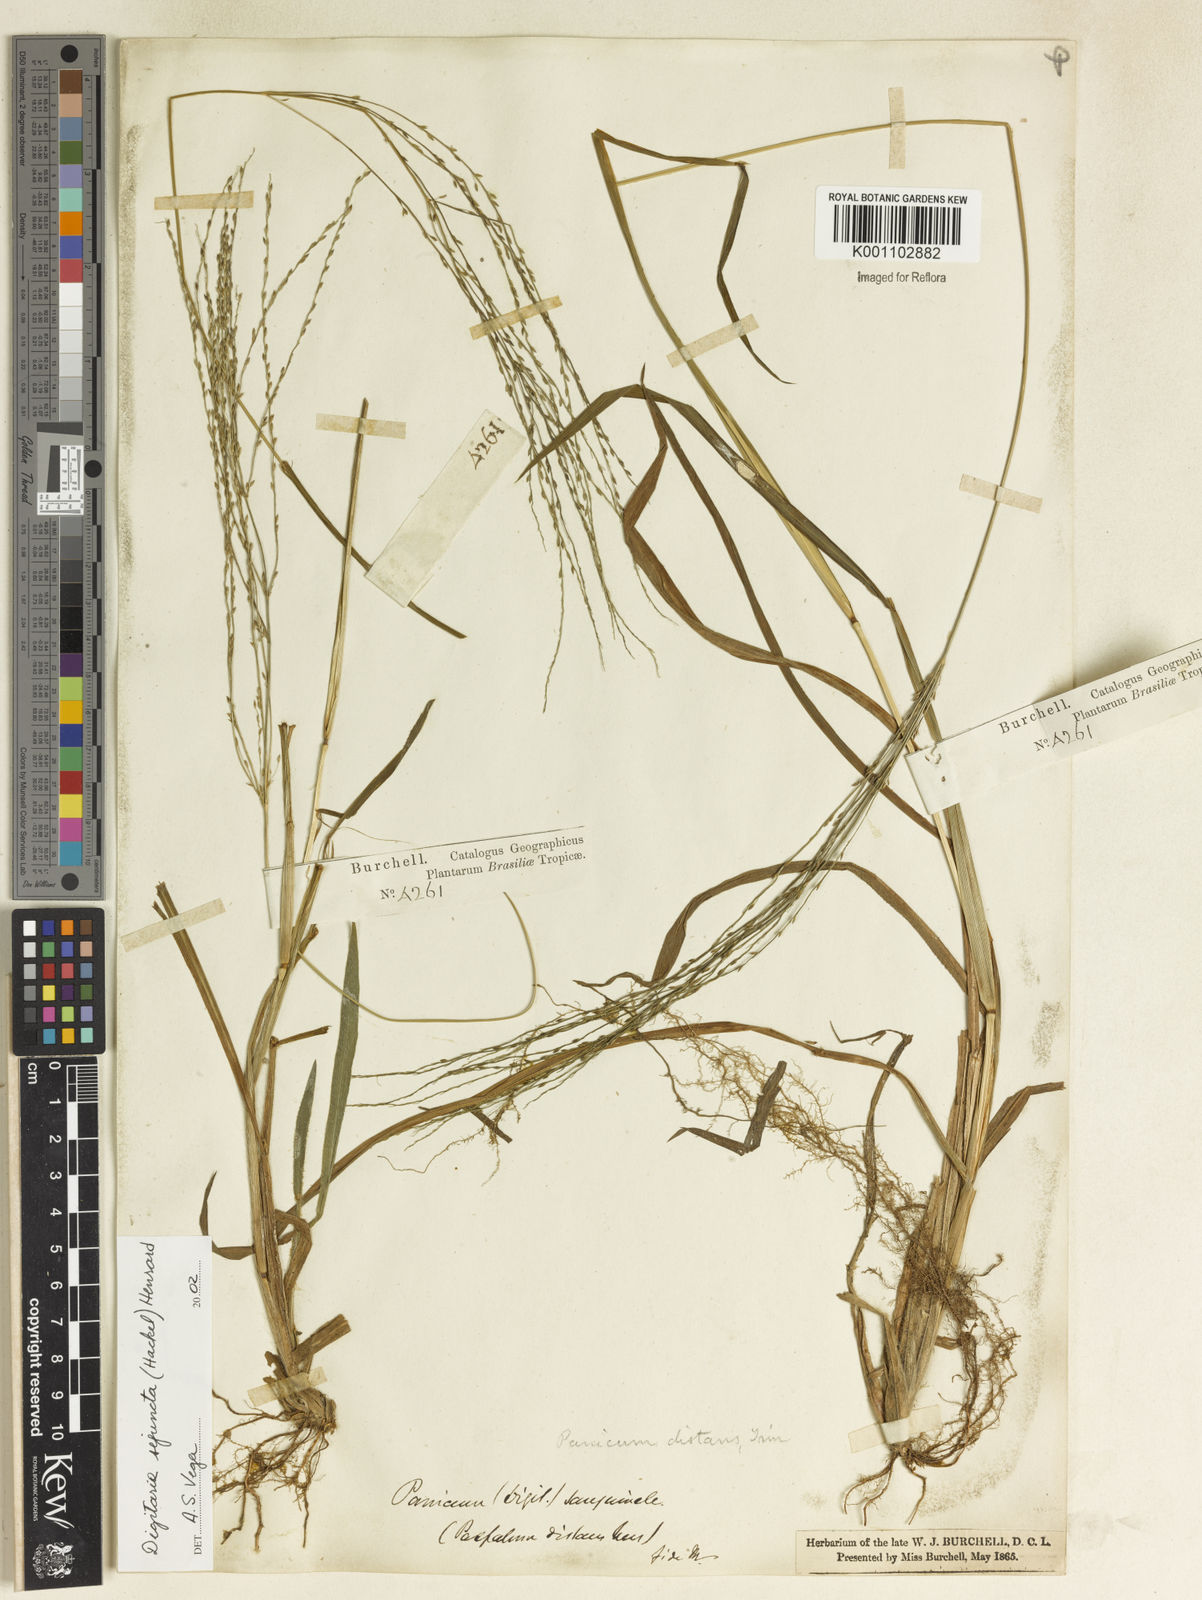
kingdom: Plantae
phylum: Tracheophyta
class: Liliopsida
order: Poales
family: Poaceae
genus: Digitaria
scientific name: Digitaria sejuncta
